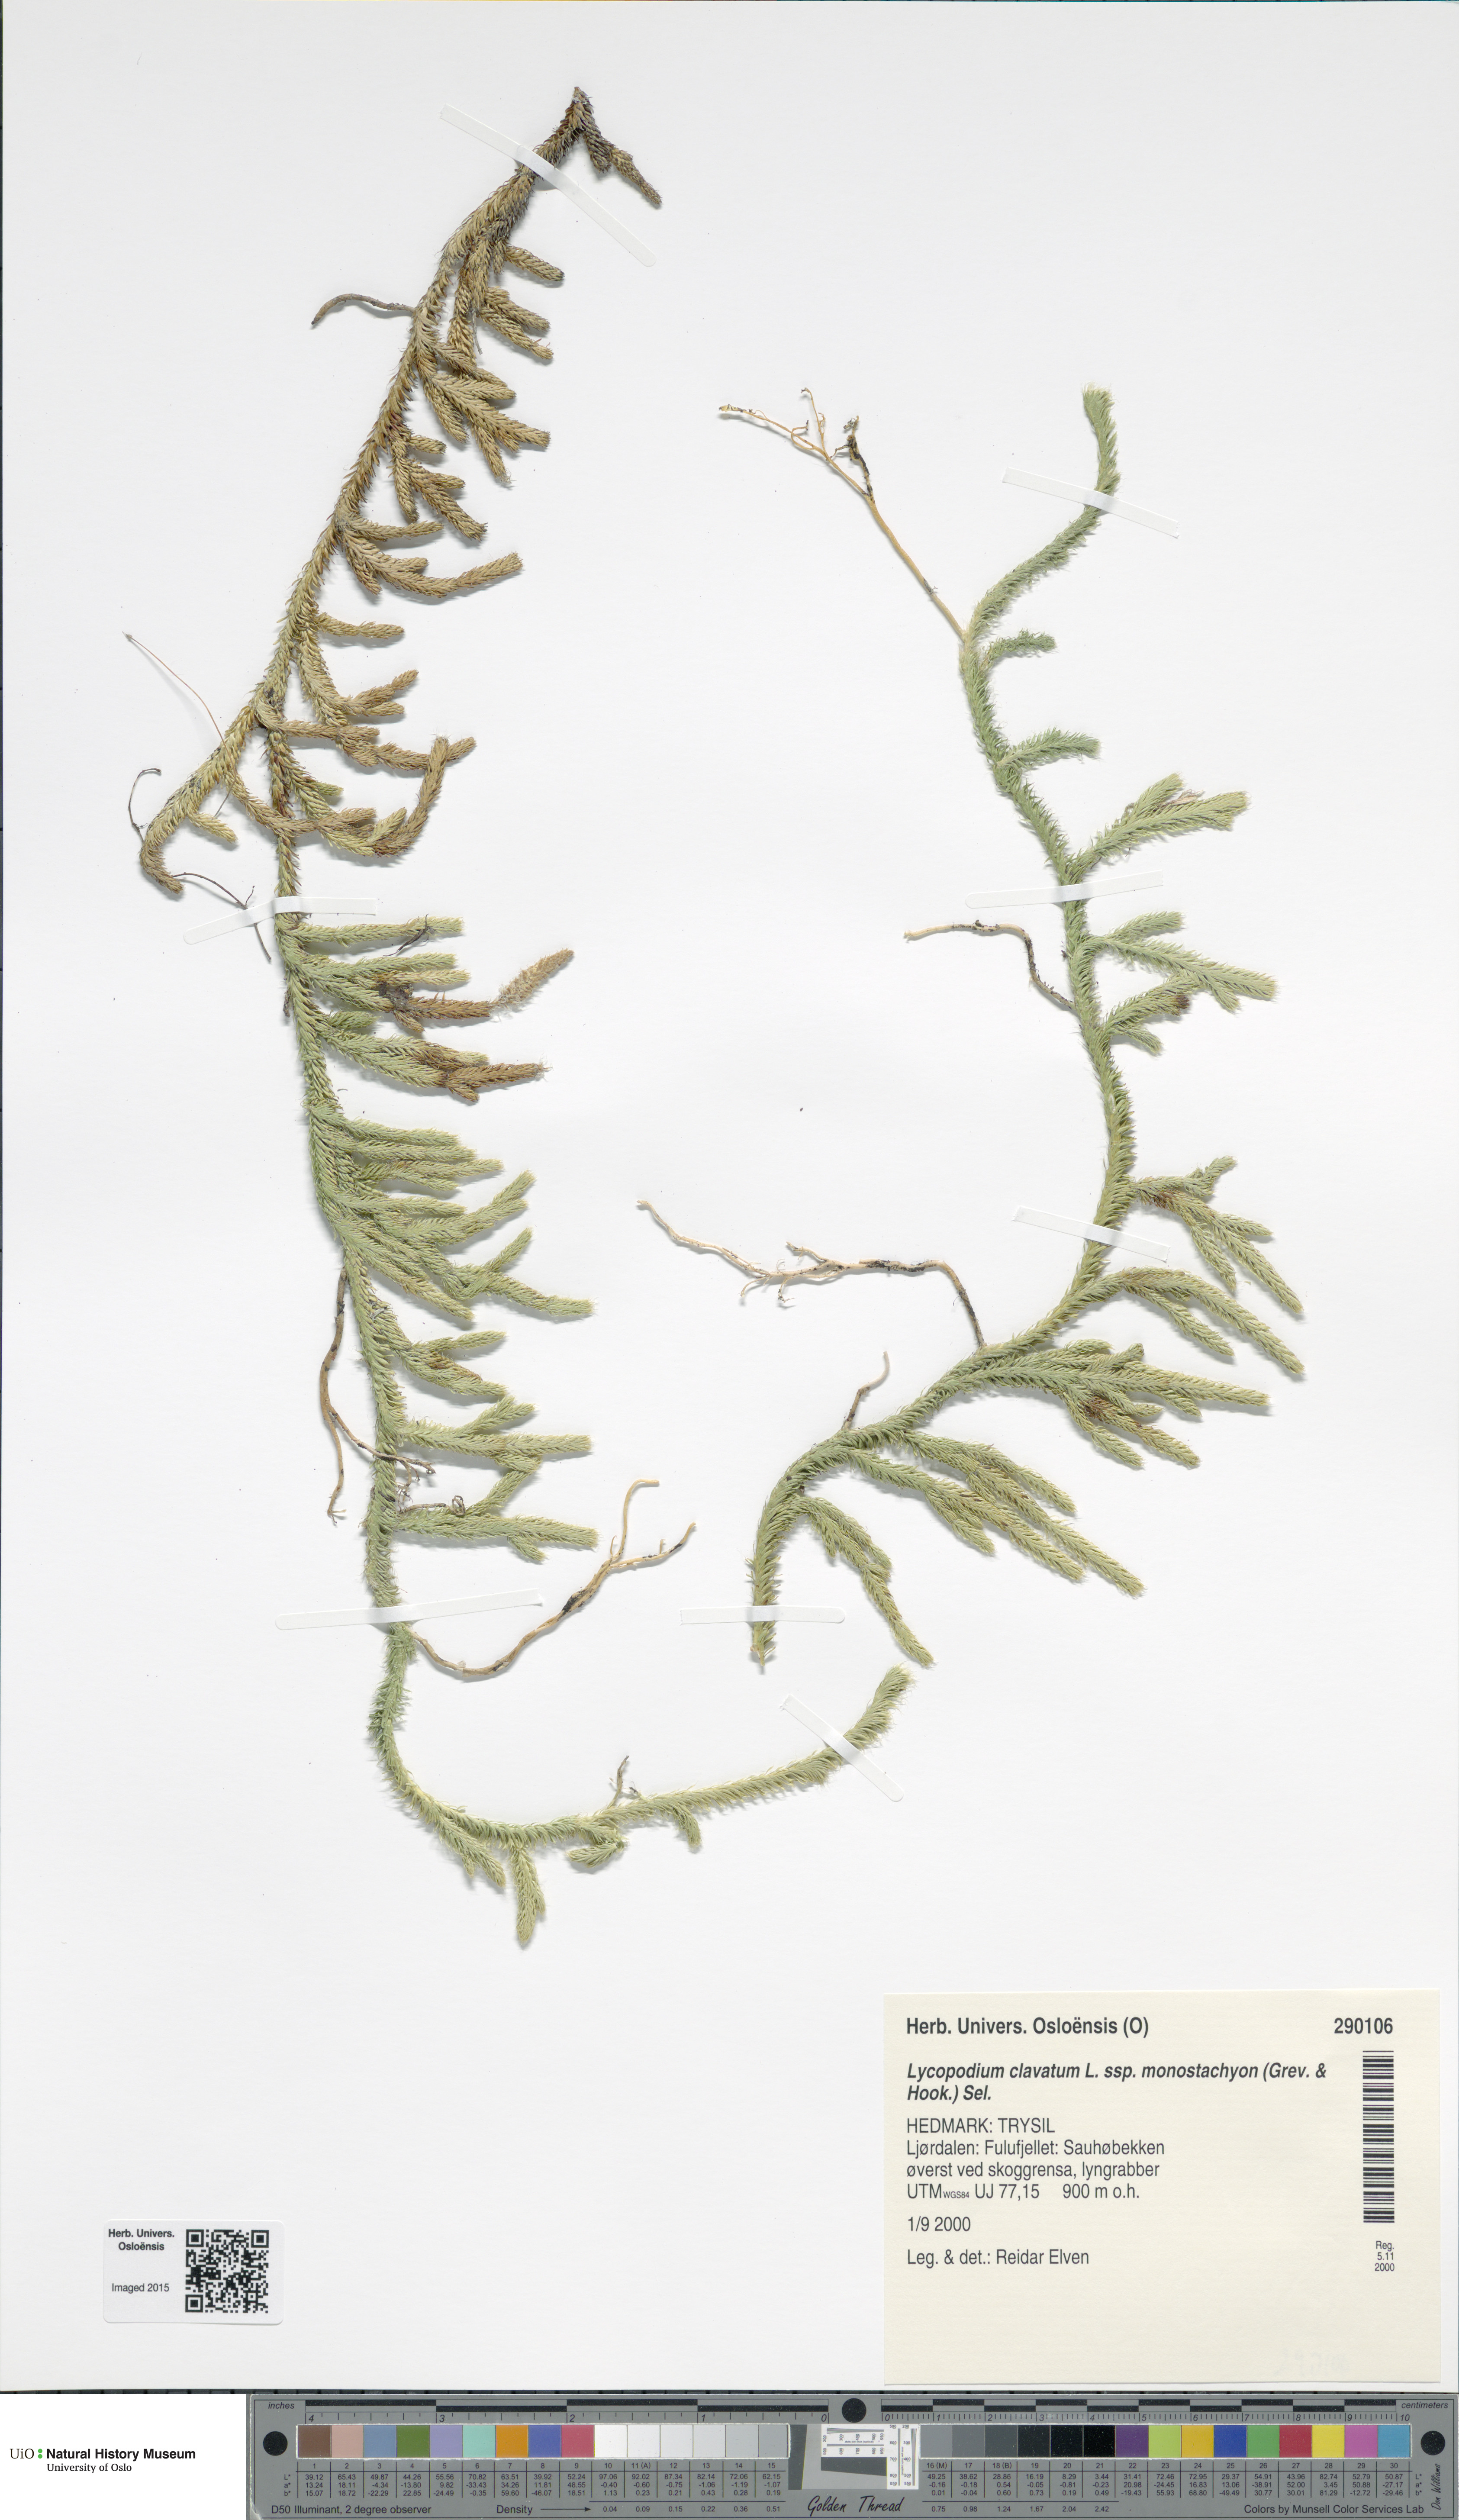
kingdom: Plantae
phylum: Tracheophyta
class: Lycopodiopsida
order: Lycopodiales
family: Lycopodiaceae
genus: Lycopodium
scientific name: Lycopodium lagopus
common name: One-cone clubmoss
